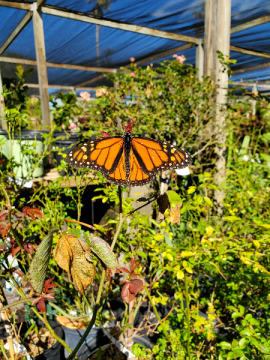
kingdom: Animalia
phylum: Arthropoda
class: Insecta
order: Lepidoptera
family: Nymphalidae
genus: Danaus
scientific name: Danaus plexippus
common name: Monarch
